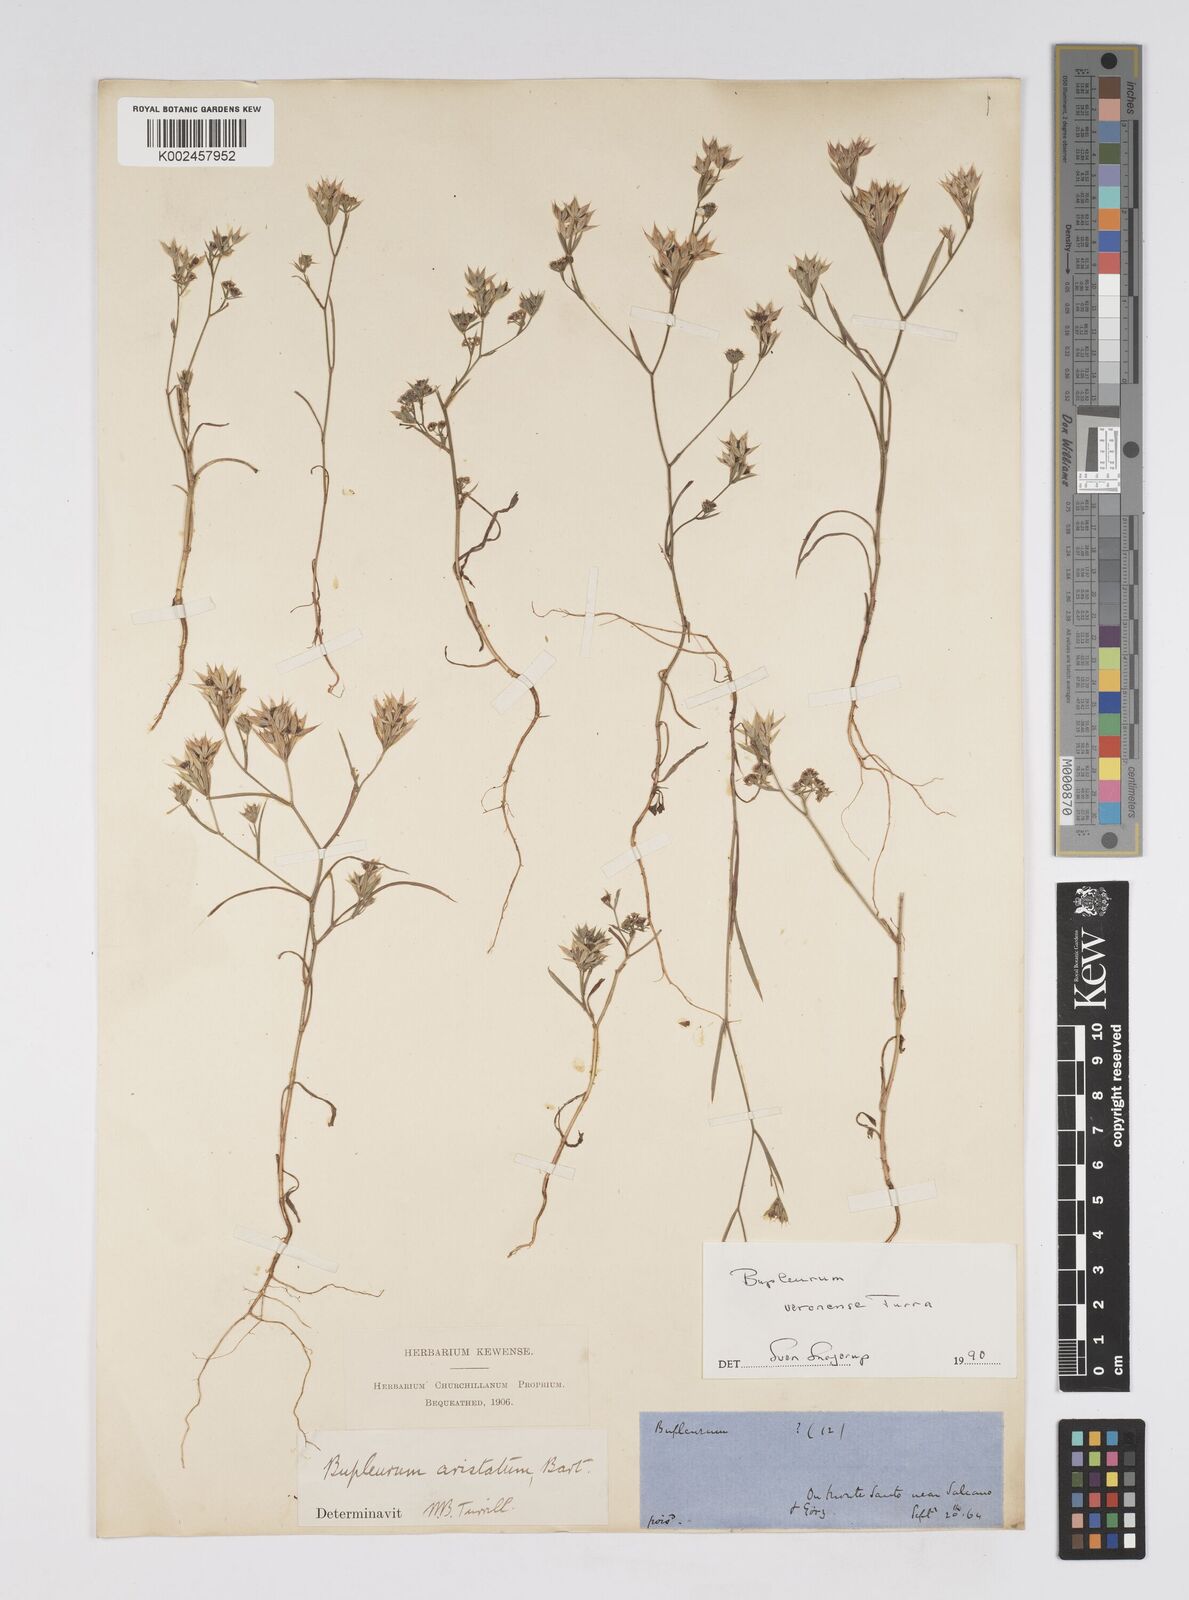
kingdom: Plantae
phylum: Tracheophyta
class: Magnoliopsida
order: Apiales
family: Apiaceae
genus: Bupleurum
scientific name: Bupleurum glumaceum
